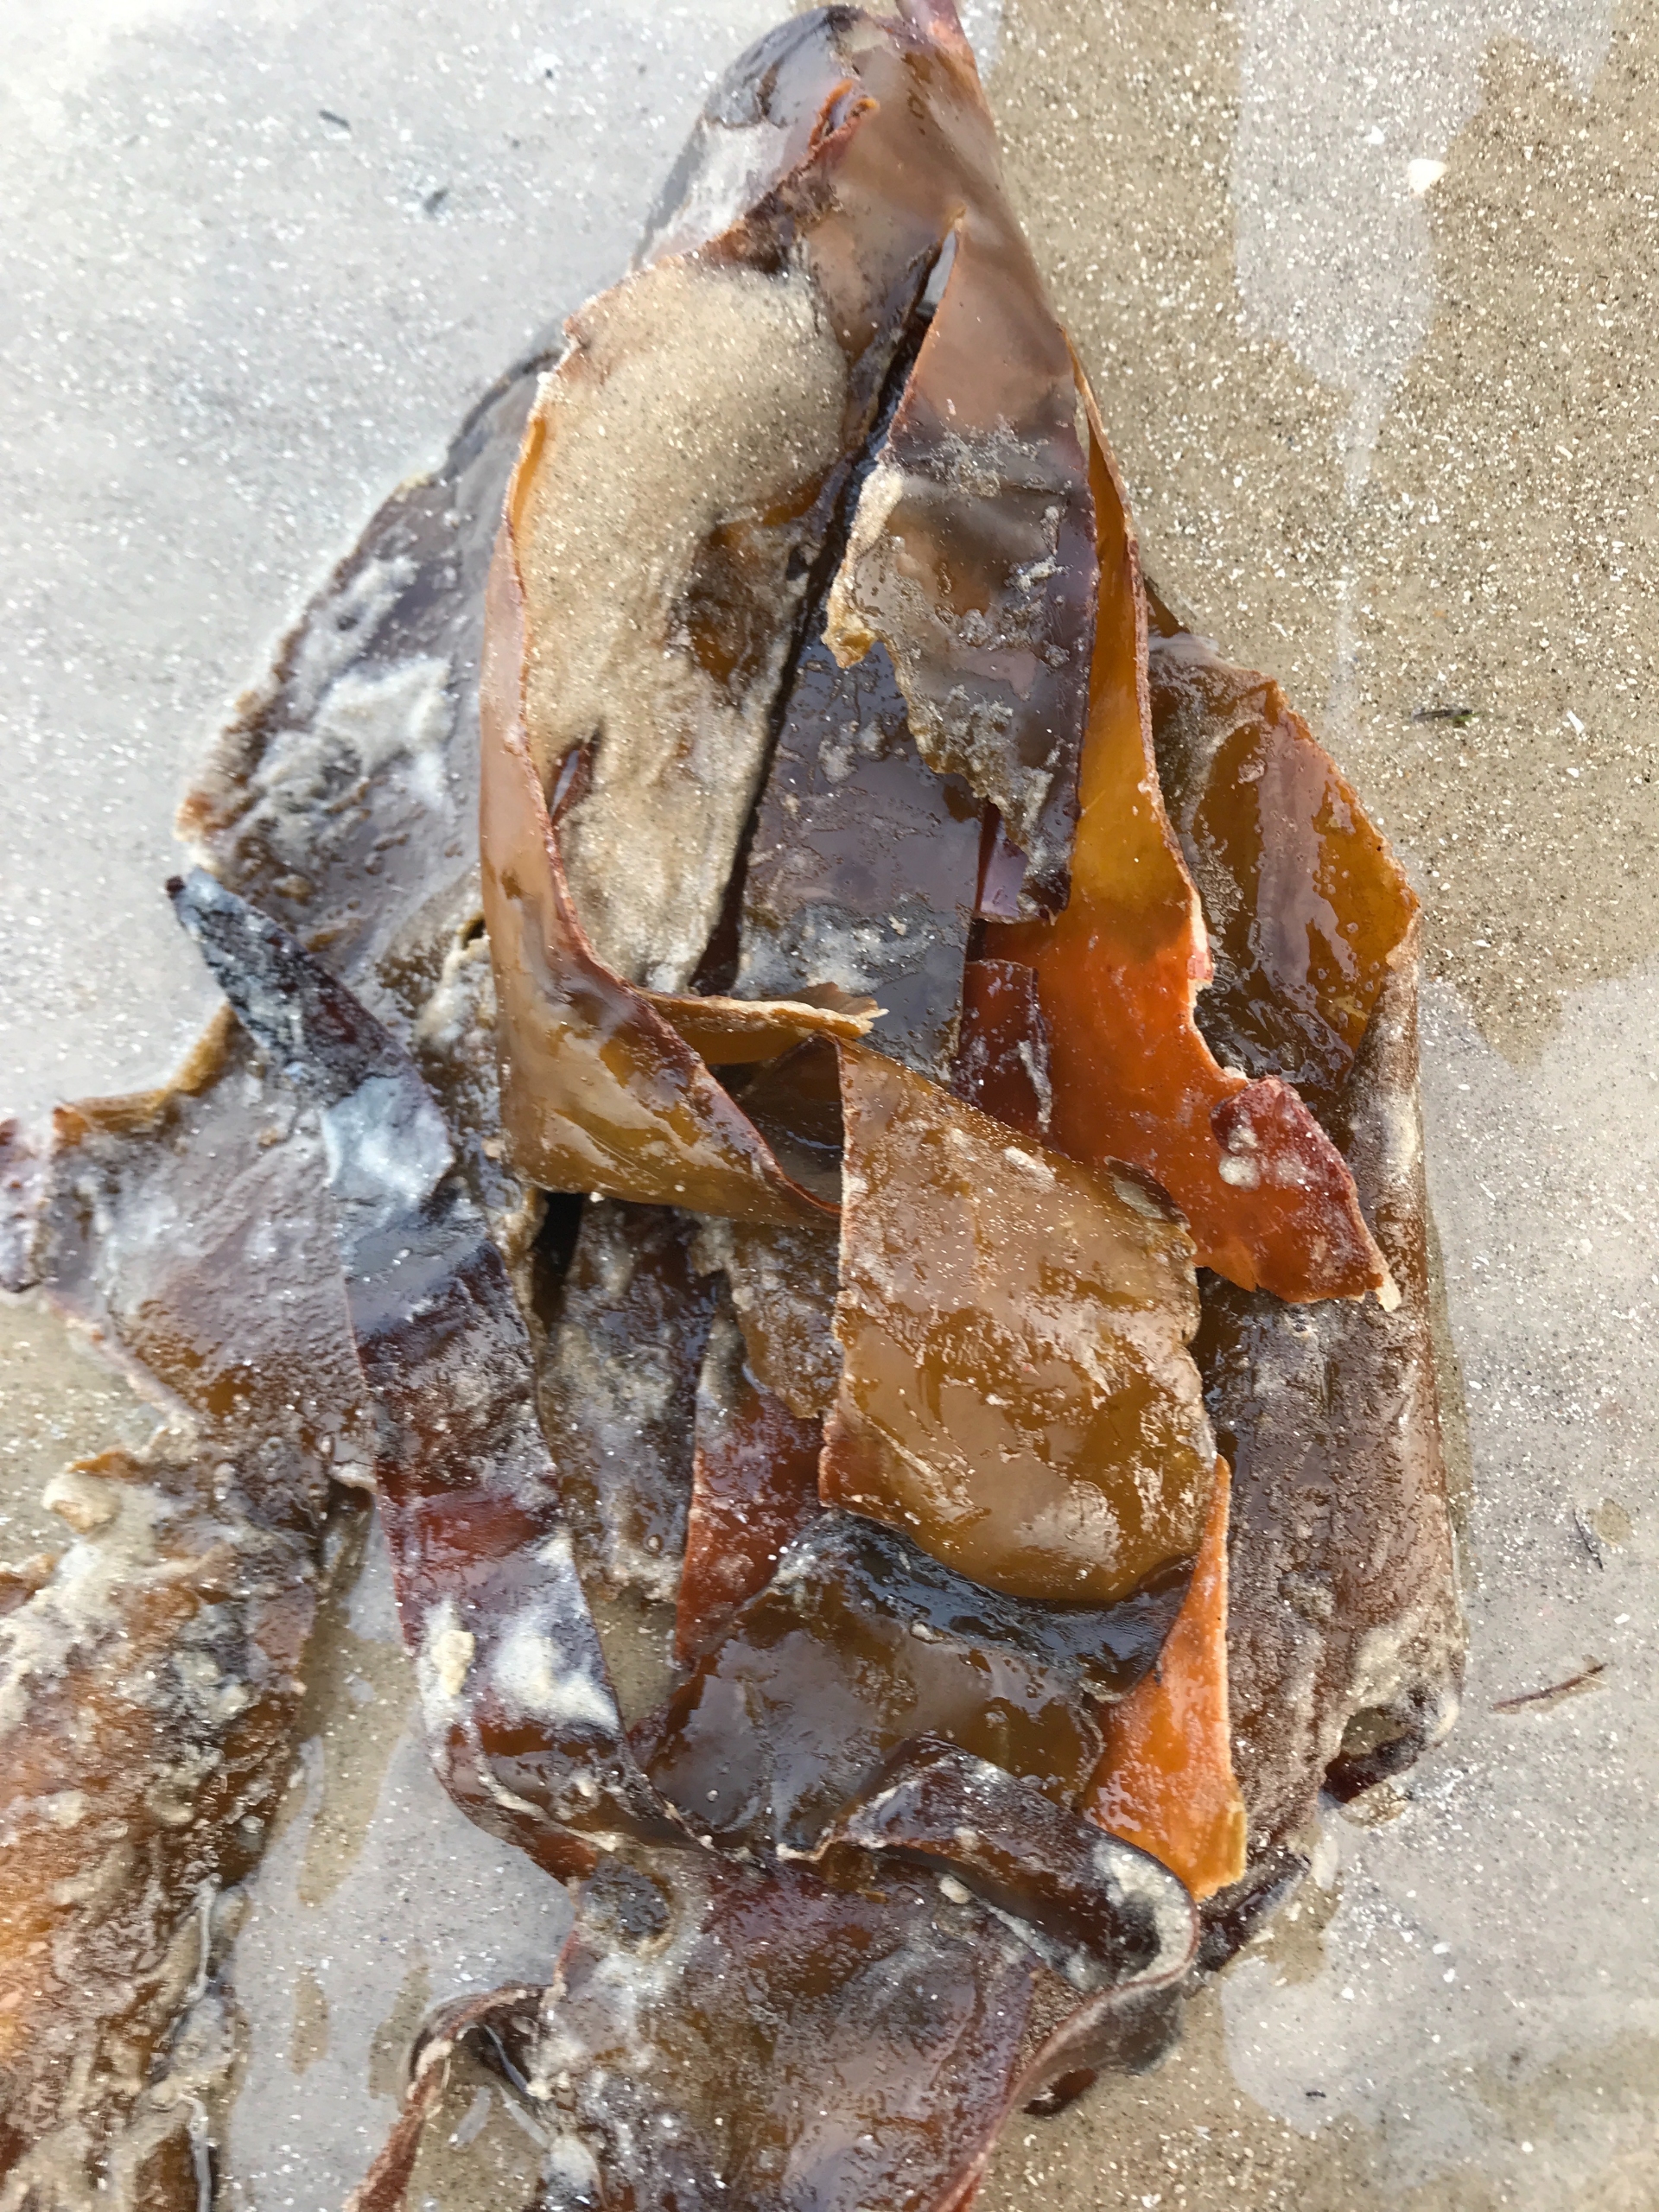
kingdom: Chromista
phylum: Ochrophyta
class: Phaeophyceae
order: Laminariales
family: Laminariaceae
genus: Laminaria
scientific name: Laminaria hyperborea
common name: Palmetang
